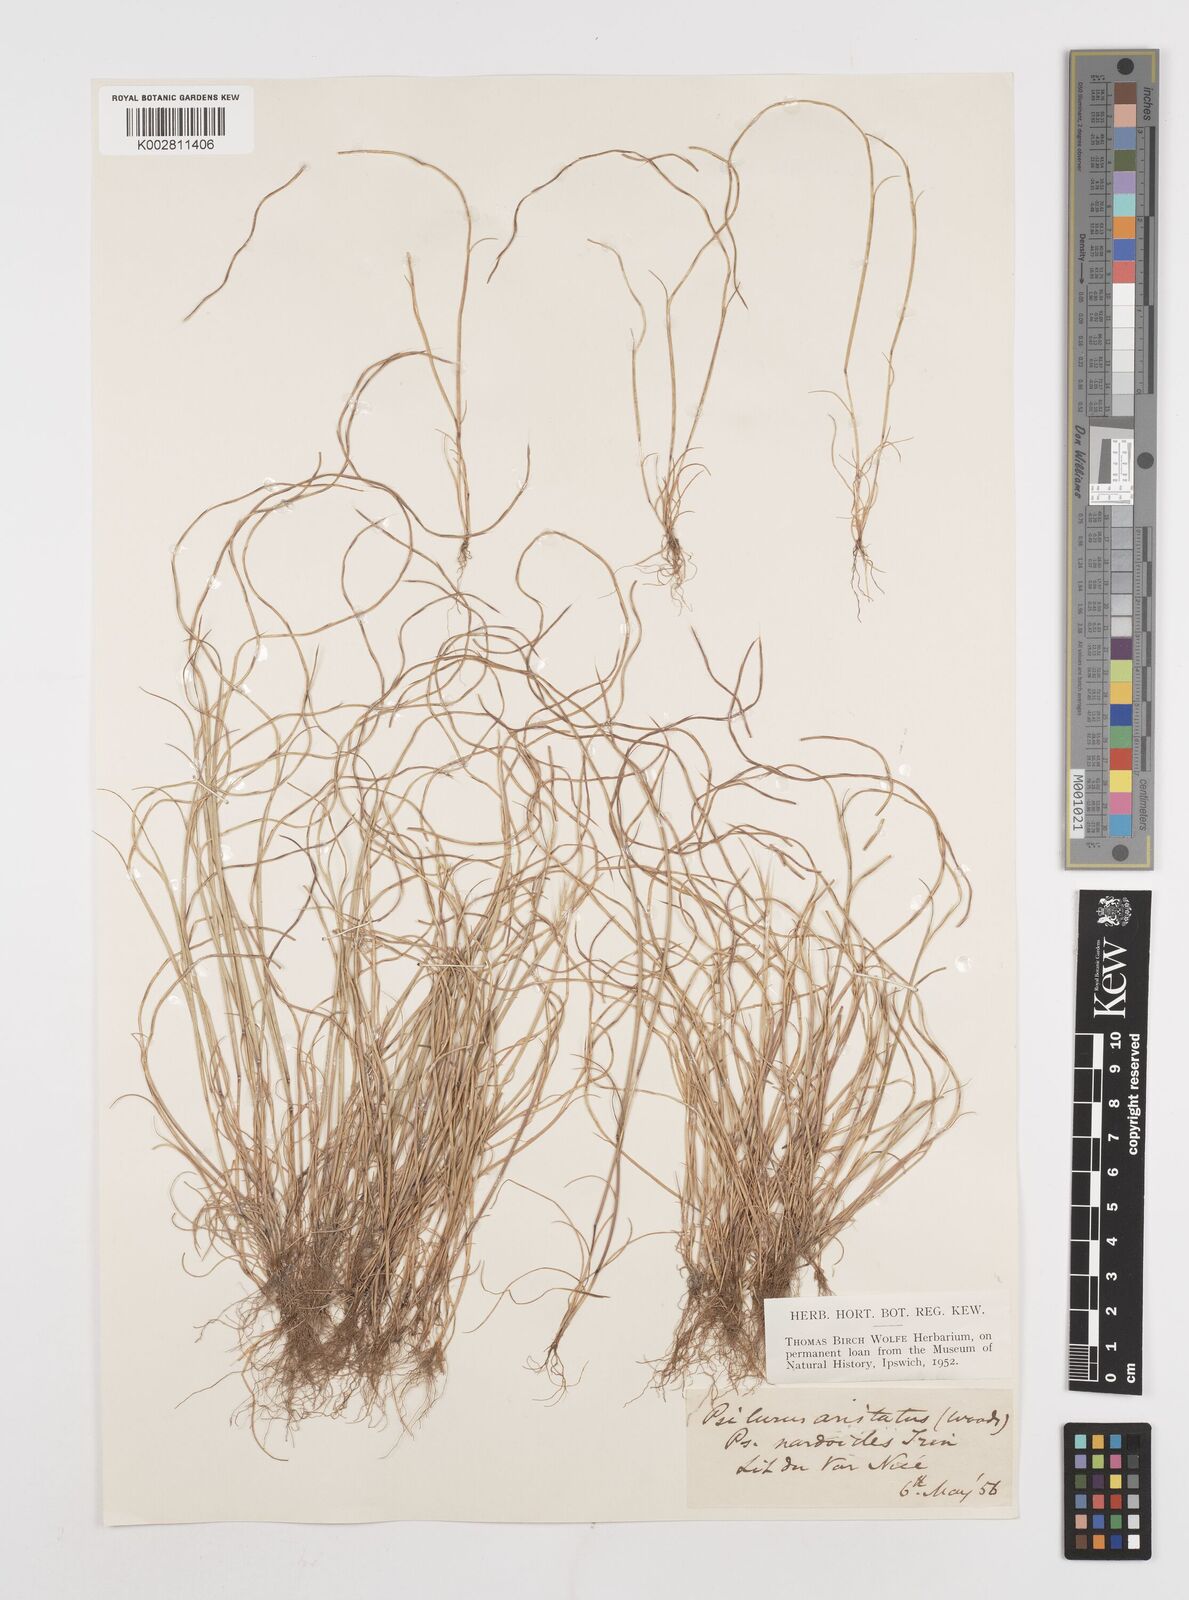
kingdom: Plantae
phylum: Tracheophyta
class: Liliopsida
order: Poales
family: Poaceae
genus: Festuca
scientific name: Festuca incurva
